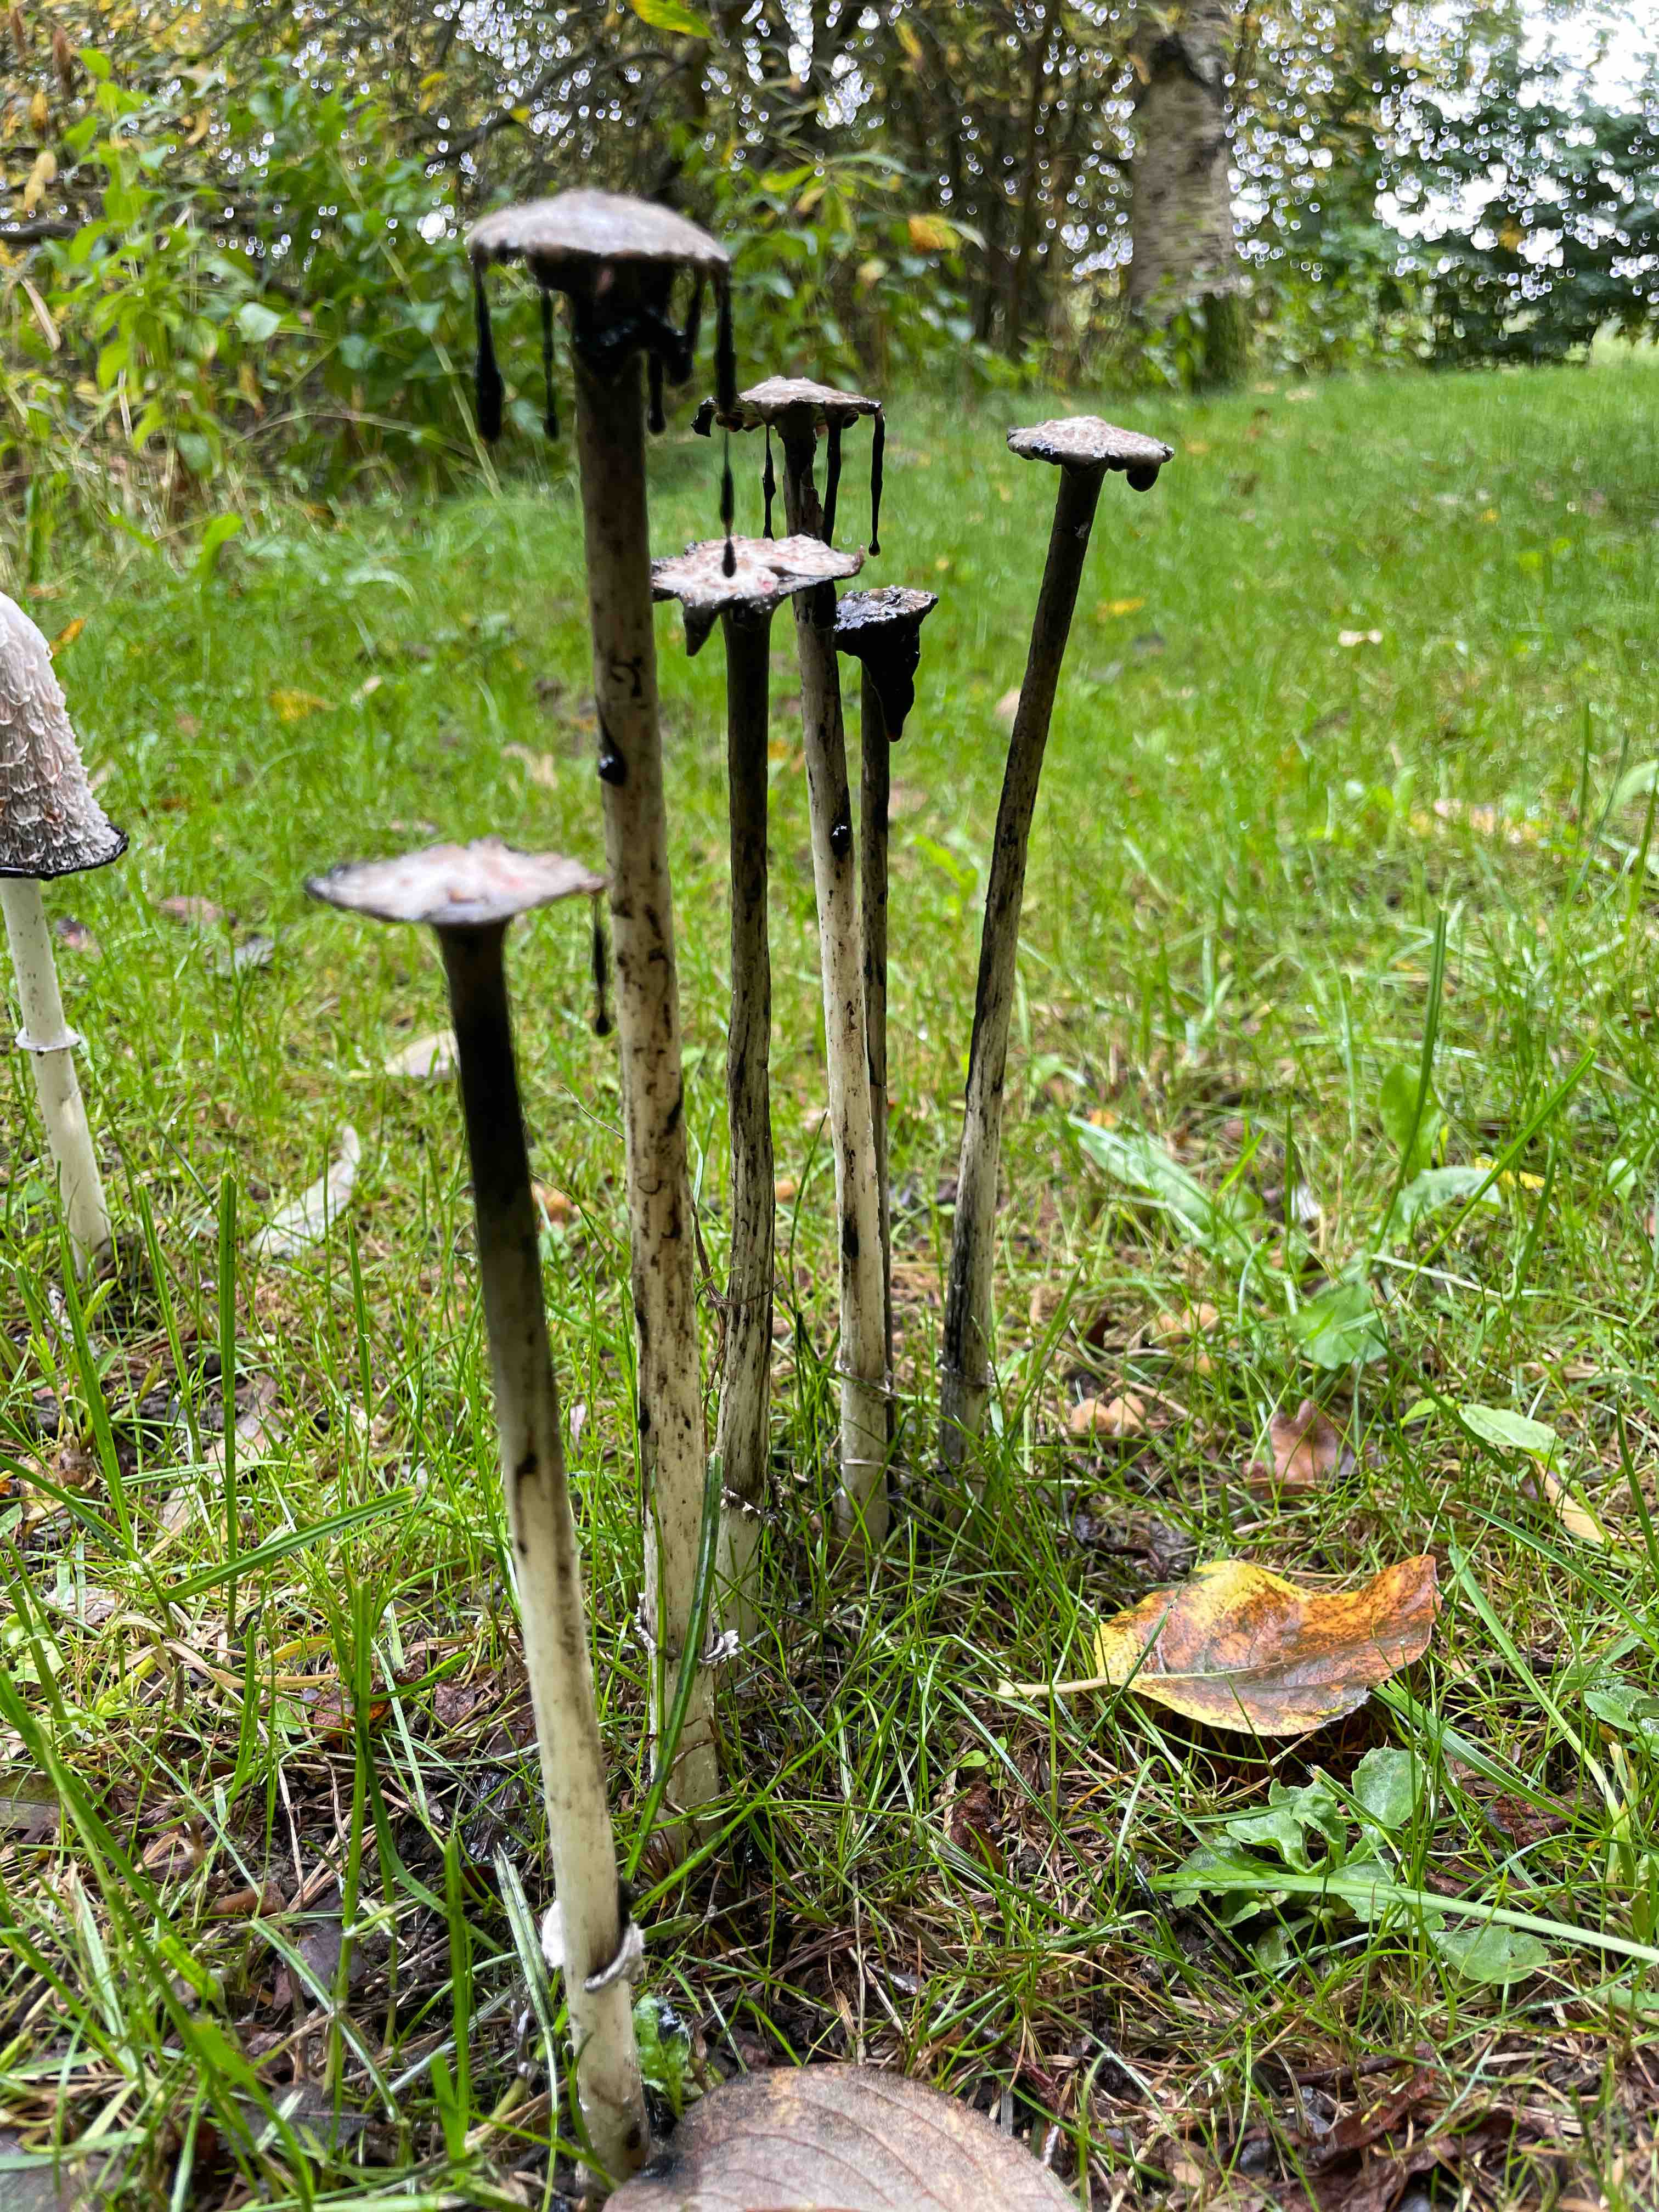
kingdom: Fungi
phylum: Basidiomycota
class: Agaricomycetes
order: Agaricales
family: Agaricaceae
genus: Coprinus
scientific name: Coprinus comatus
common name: stor parykhat
